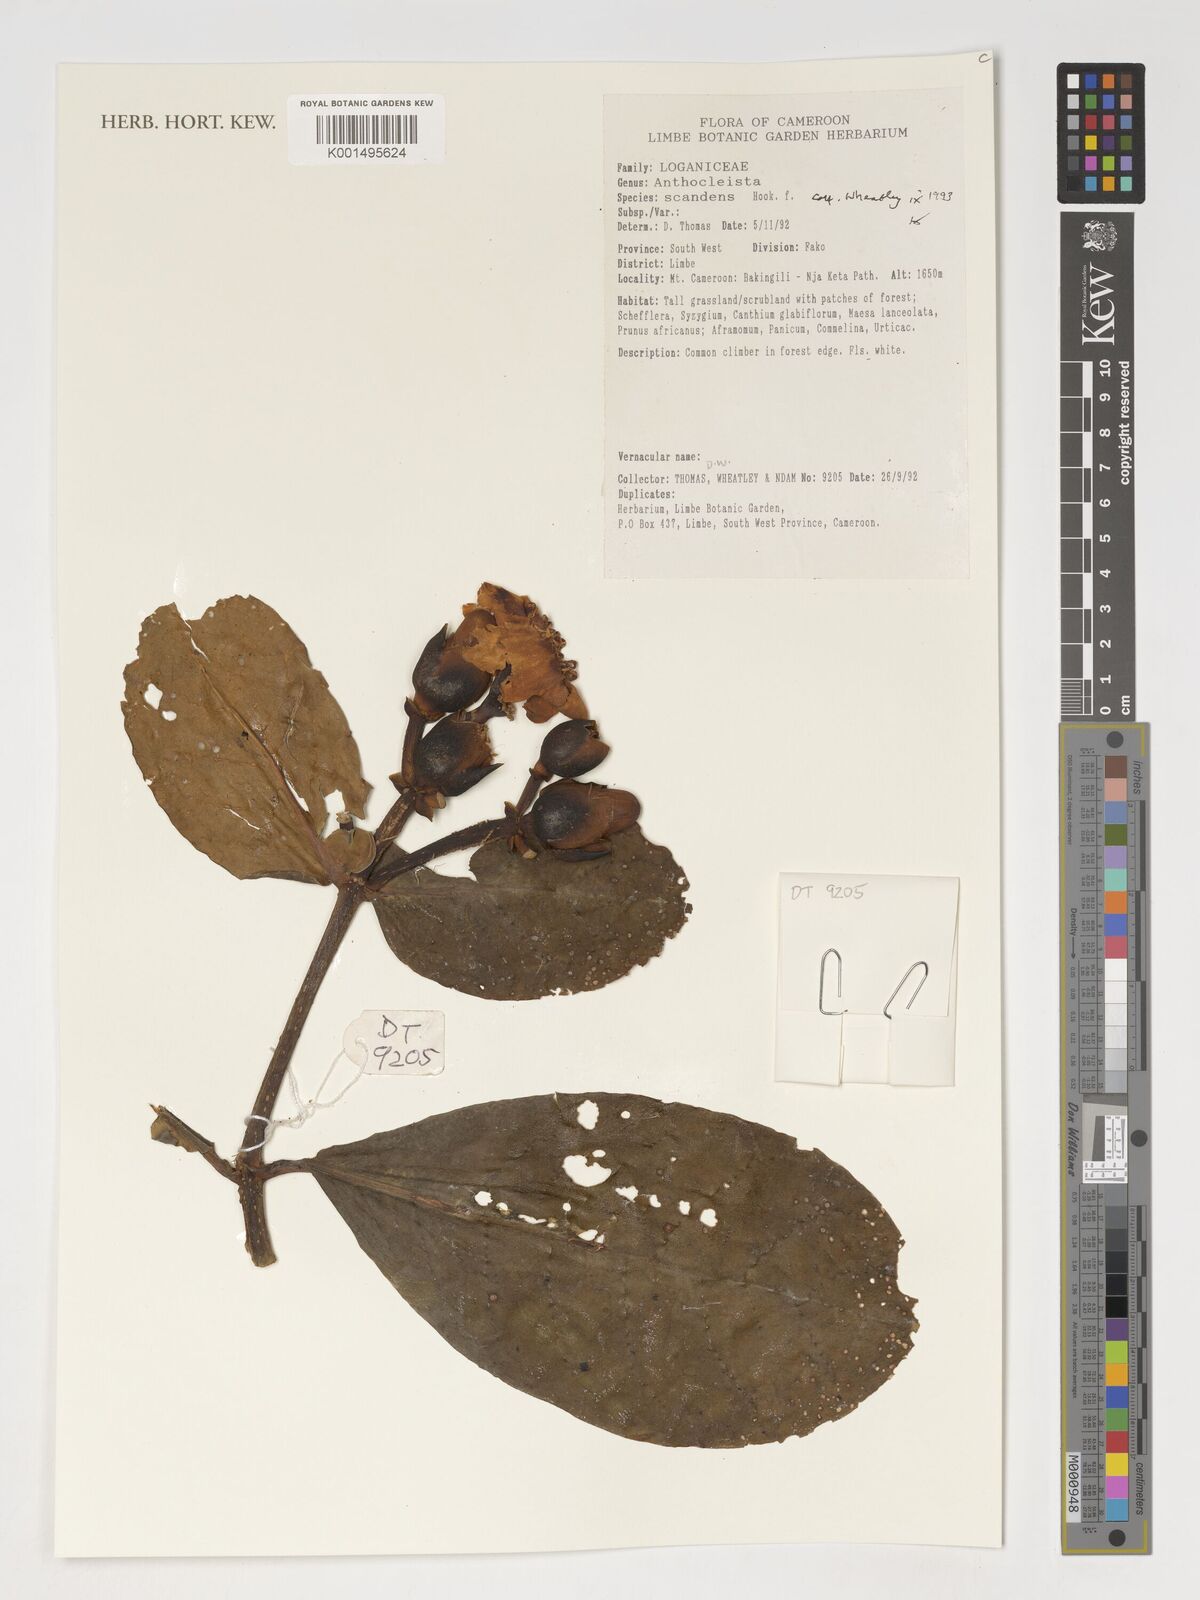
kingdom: Plantae
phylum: Tracheophyta
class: Magnoliopsida
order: Gentianales
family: Gentianaceae
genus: Anthocleista
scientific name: Anthocleista scandens
